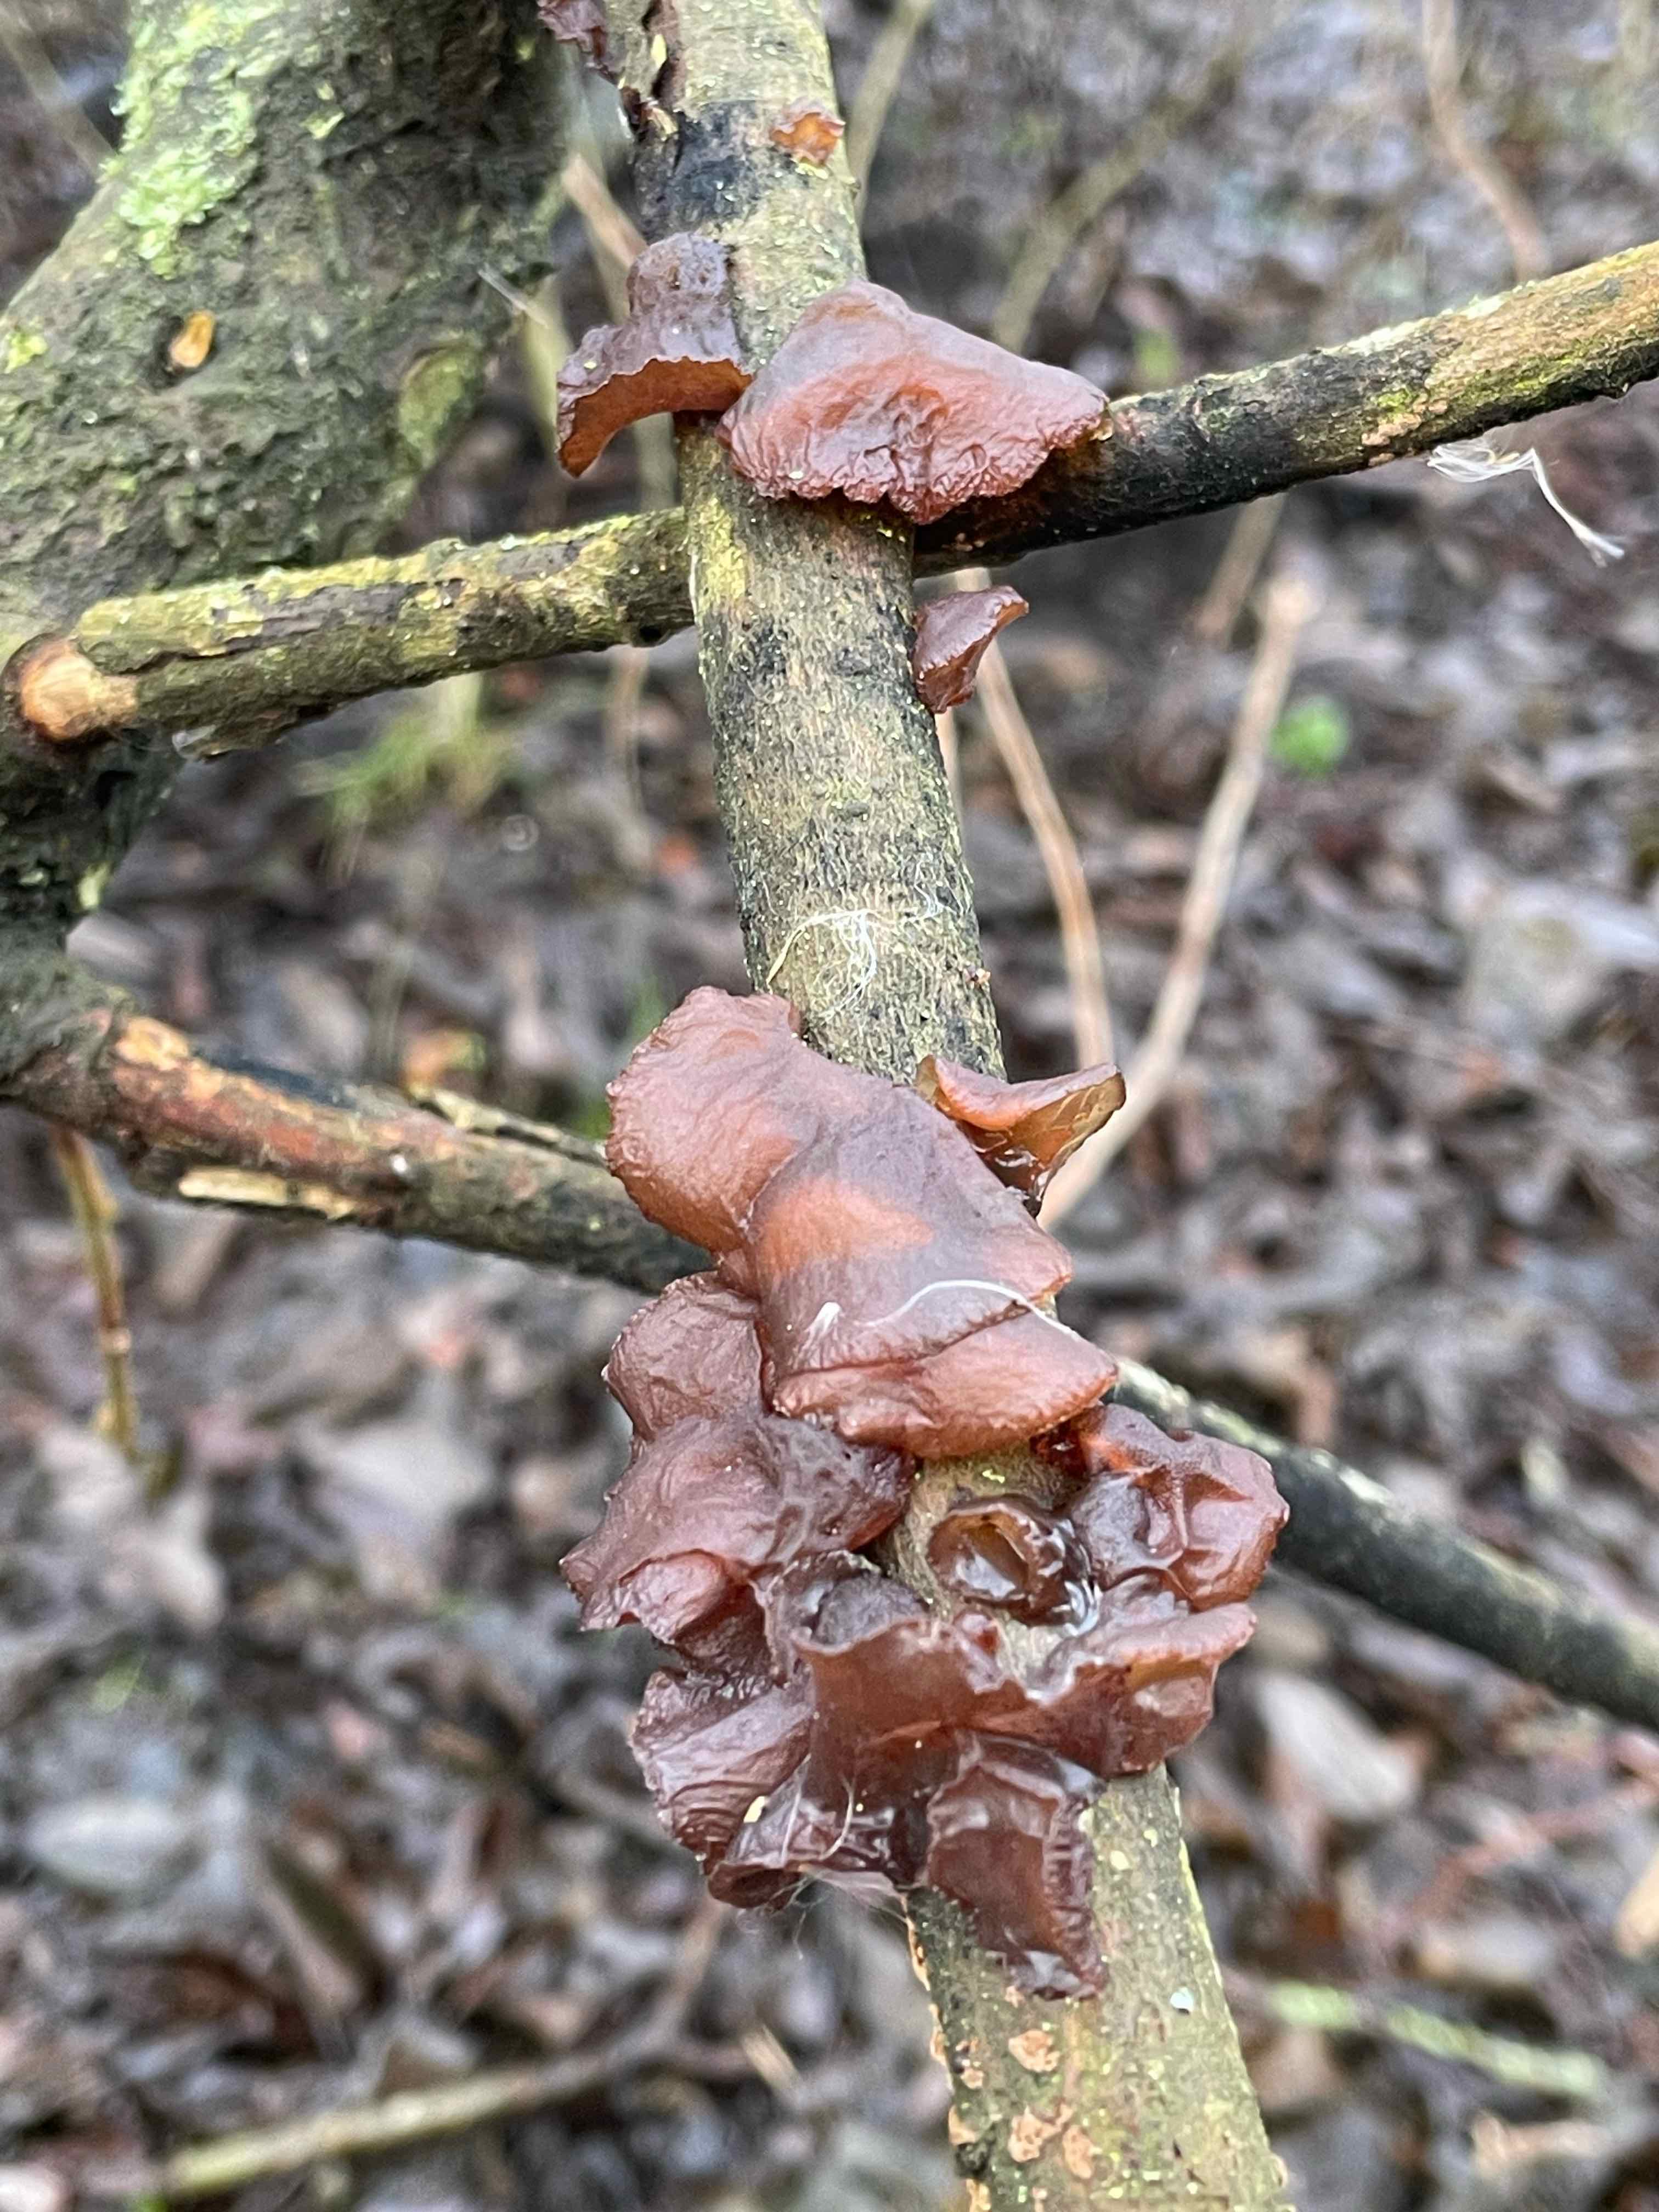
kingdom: Fungi
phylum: Basidiomycota
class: Agaricomycetes
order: Auriculariales
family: Auriculariaceae
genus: Exidia
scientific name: Exidia recisa
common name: pile-bævretop
